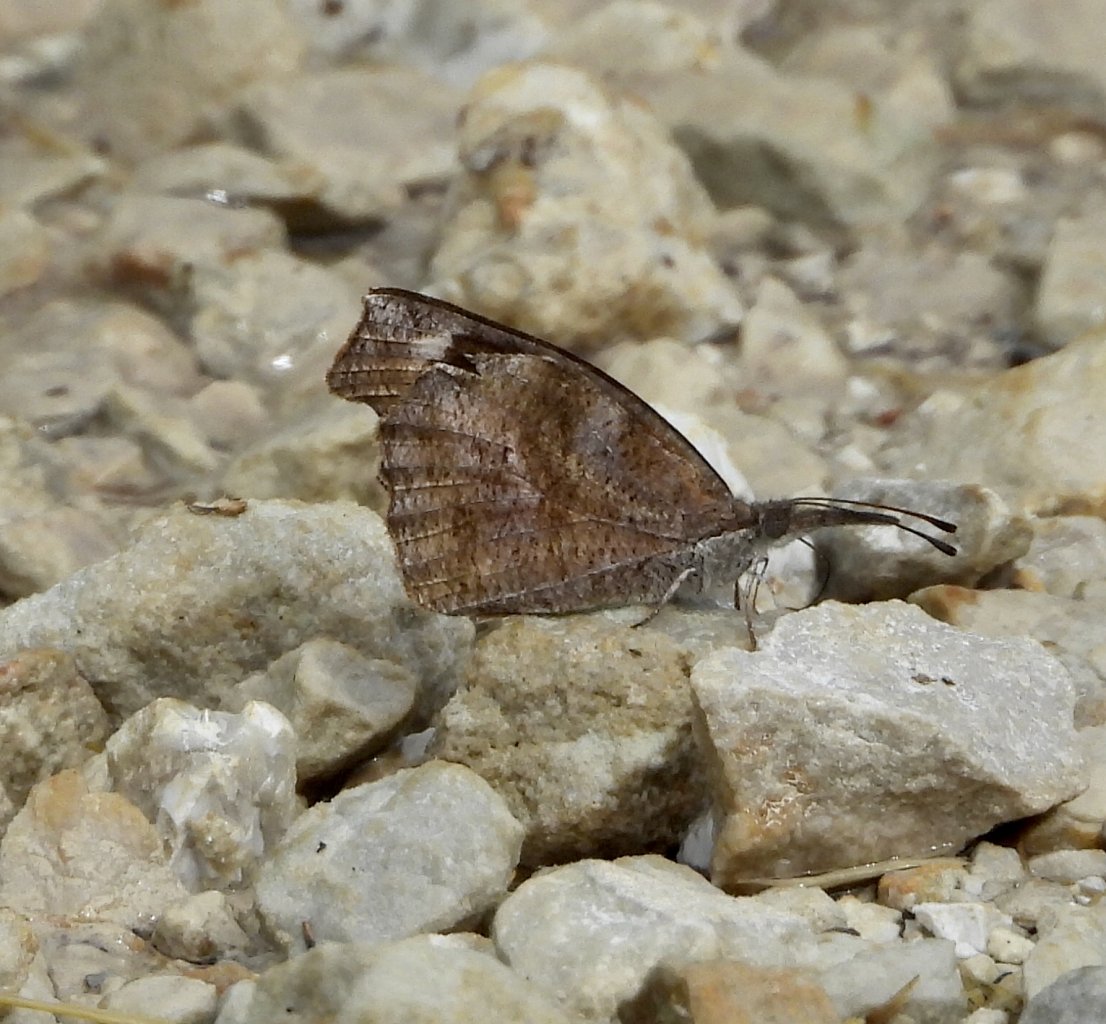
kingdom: Animalia
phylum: Arthropoda
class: Insecta
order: Lepidoptera
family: Nymphalidae
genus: Libytheana
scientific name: Libytheana carinenta
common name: American Snout
